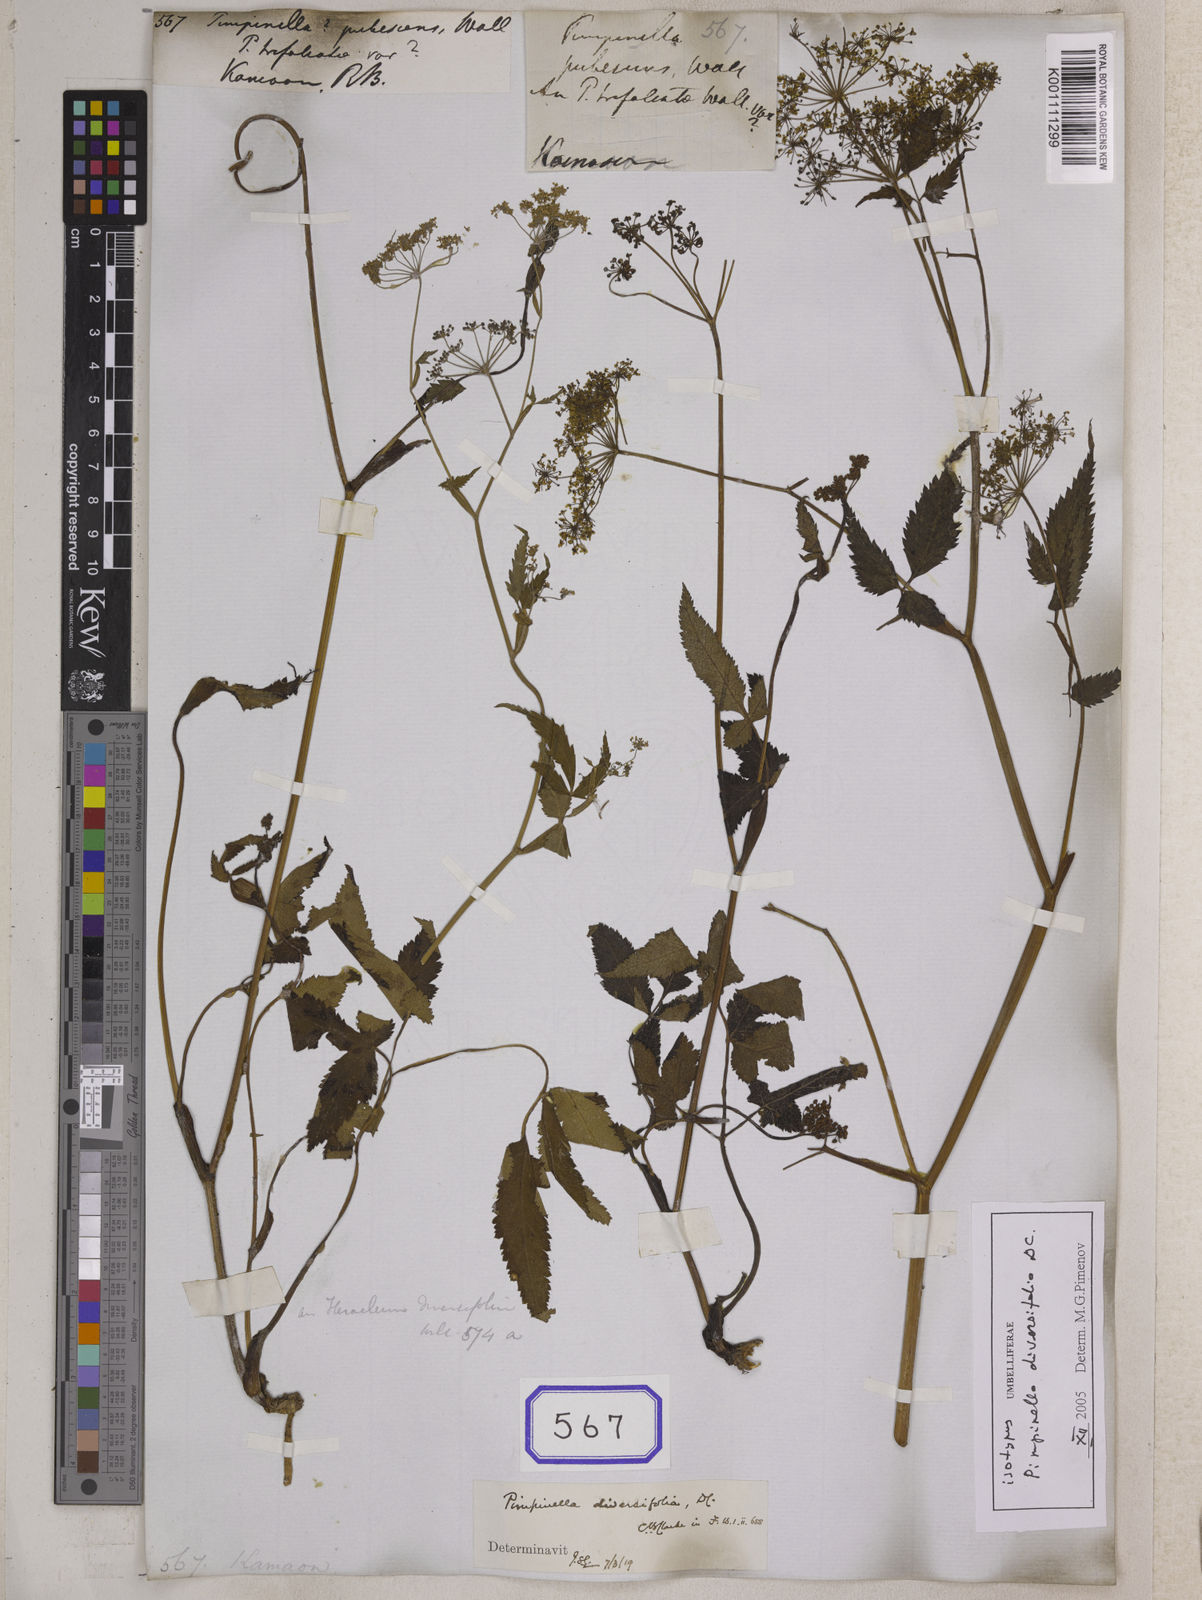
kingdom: Plantae
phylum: Tracheophyta
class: Magnoliopsida
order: Apiales
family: Apiaceae
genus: Pimpinella
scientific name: Pimpinella diversifolia
